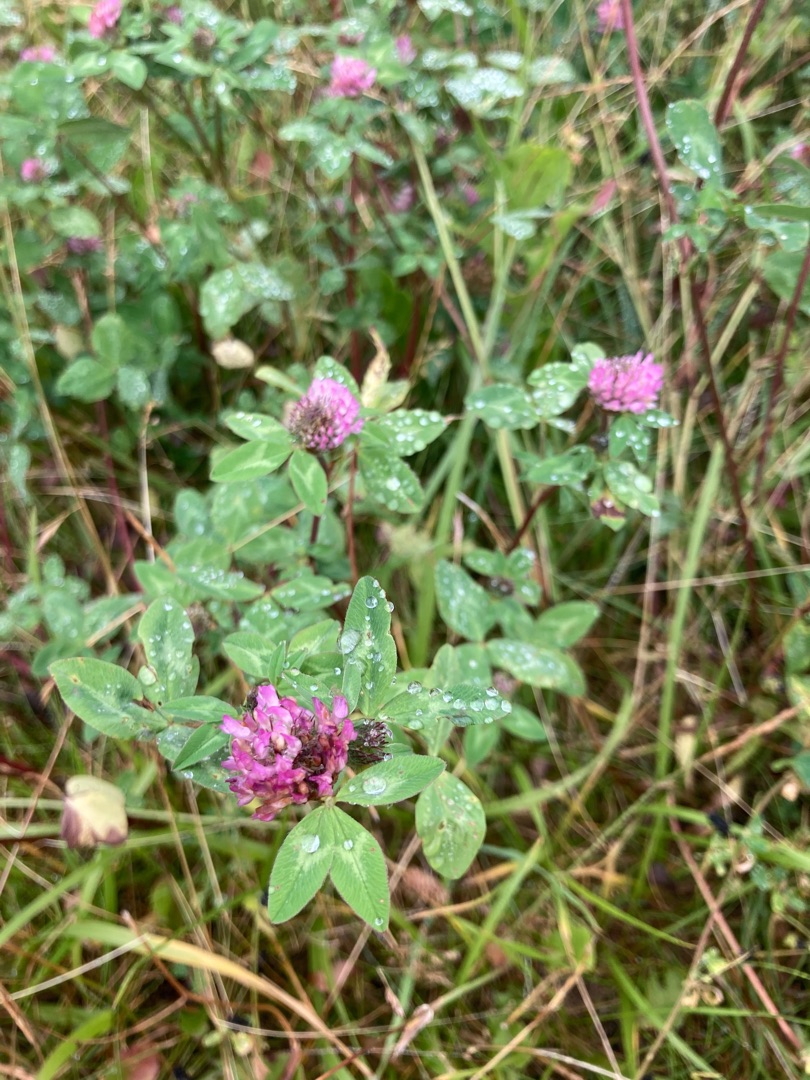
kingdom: Plantae
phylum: Tracheophyta
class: Magnoliopsida
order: Fabales
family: Fabaceae
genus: Trifolium
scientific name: Trifolium pratense
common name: Rød-kløver
